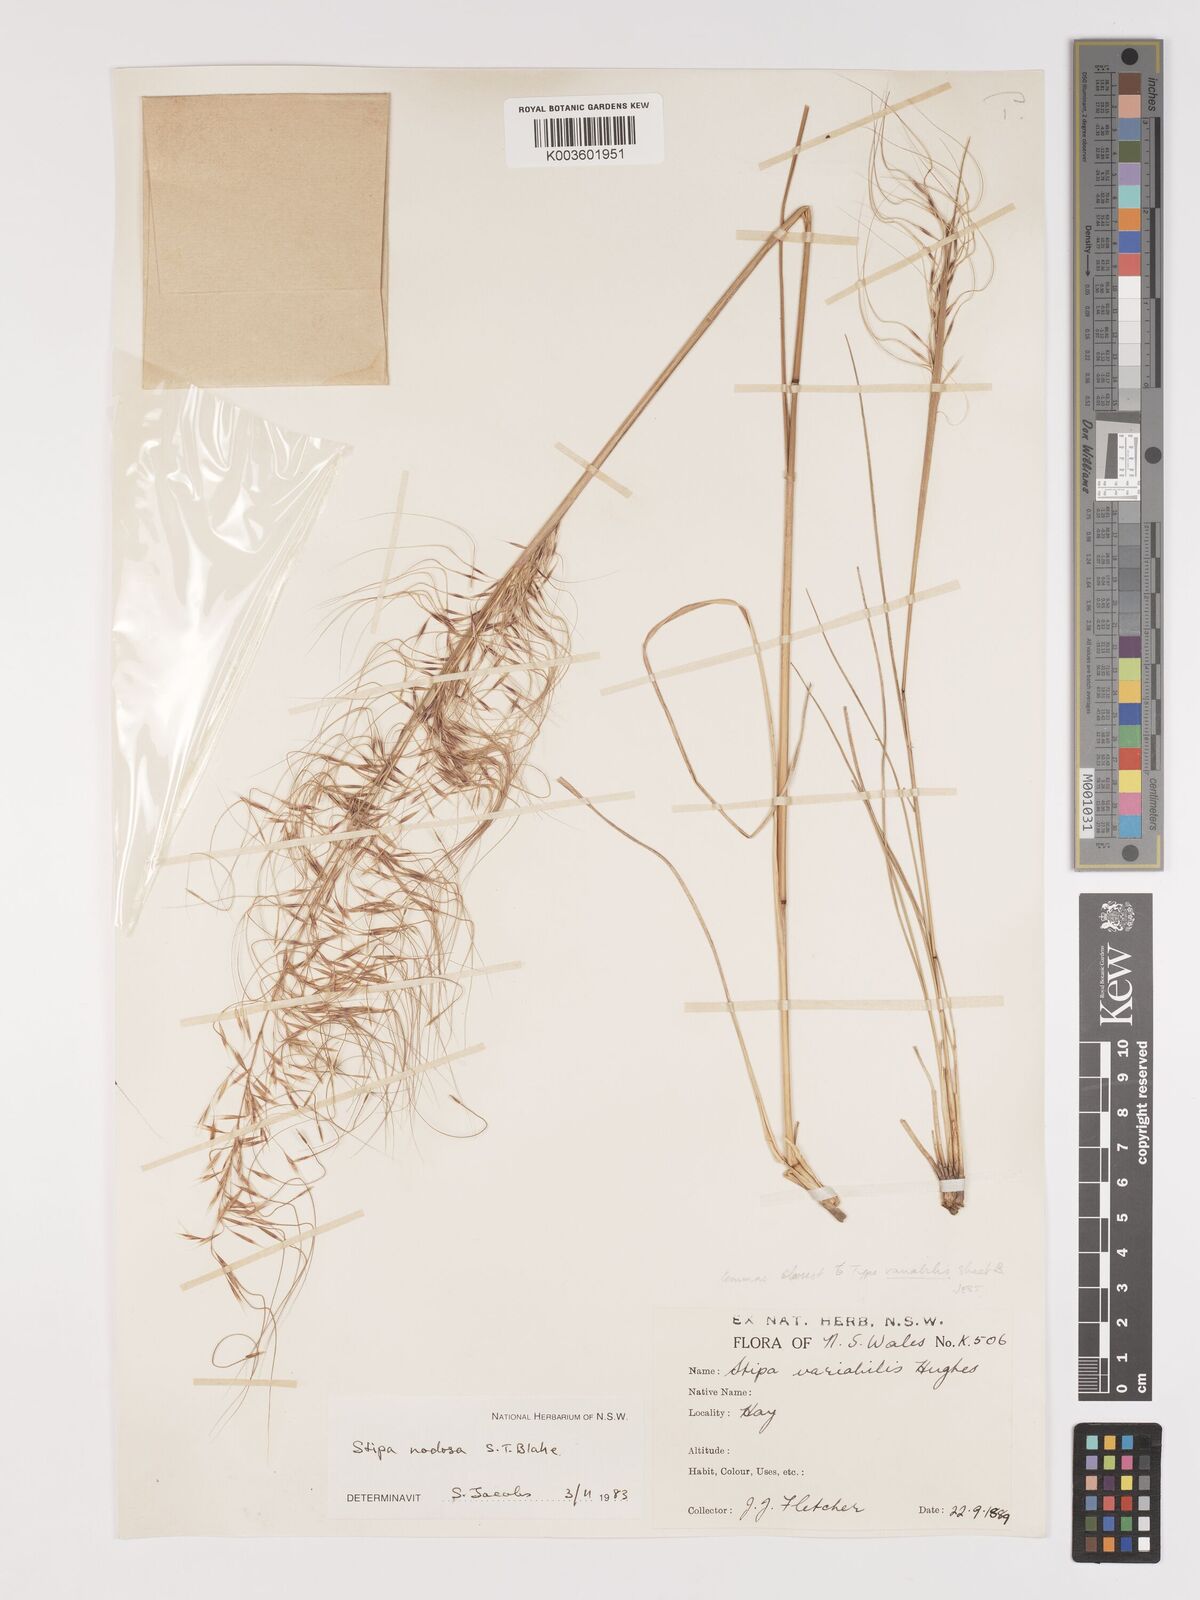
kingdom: Plantae
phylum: Tracheophyta
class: Liliopsida
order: Poales
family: Poaceae
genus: Austrostipa
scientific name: Austrostipa nodosa
